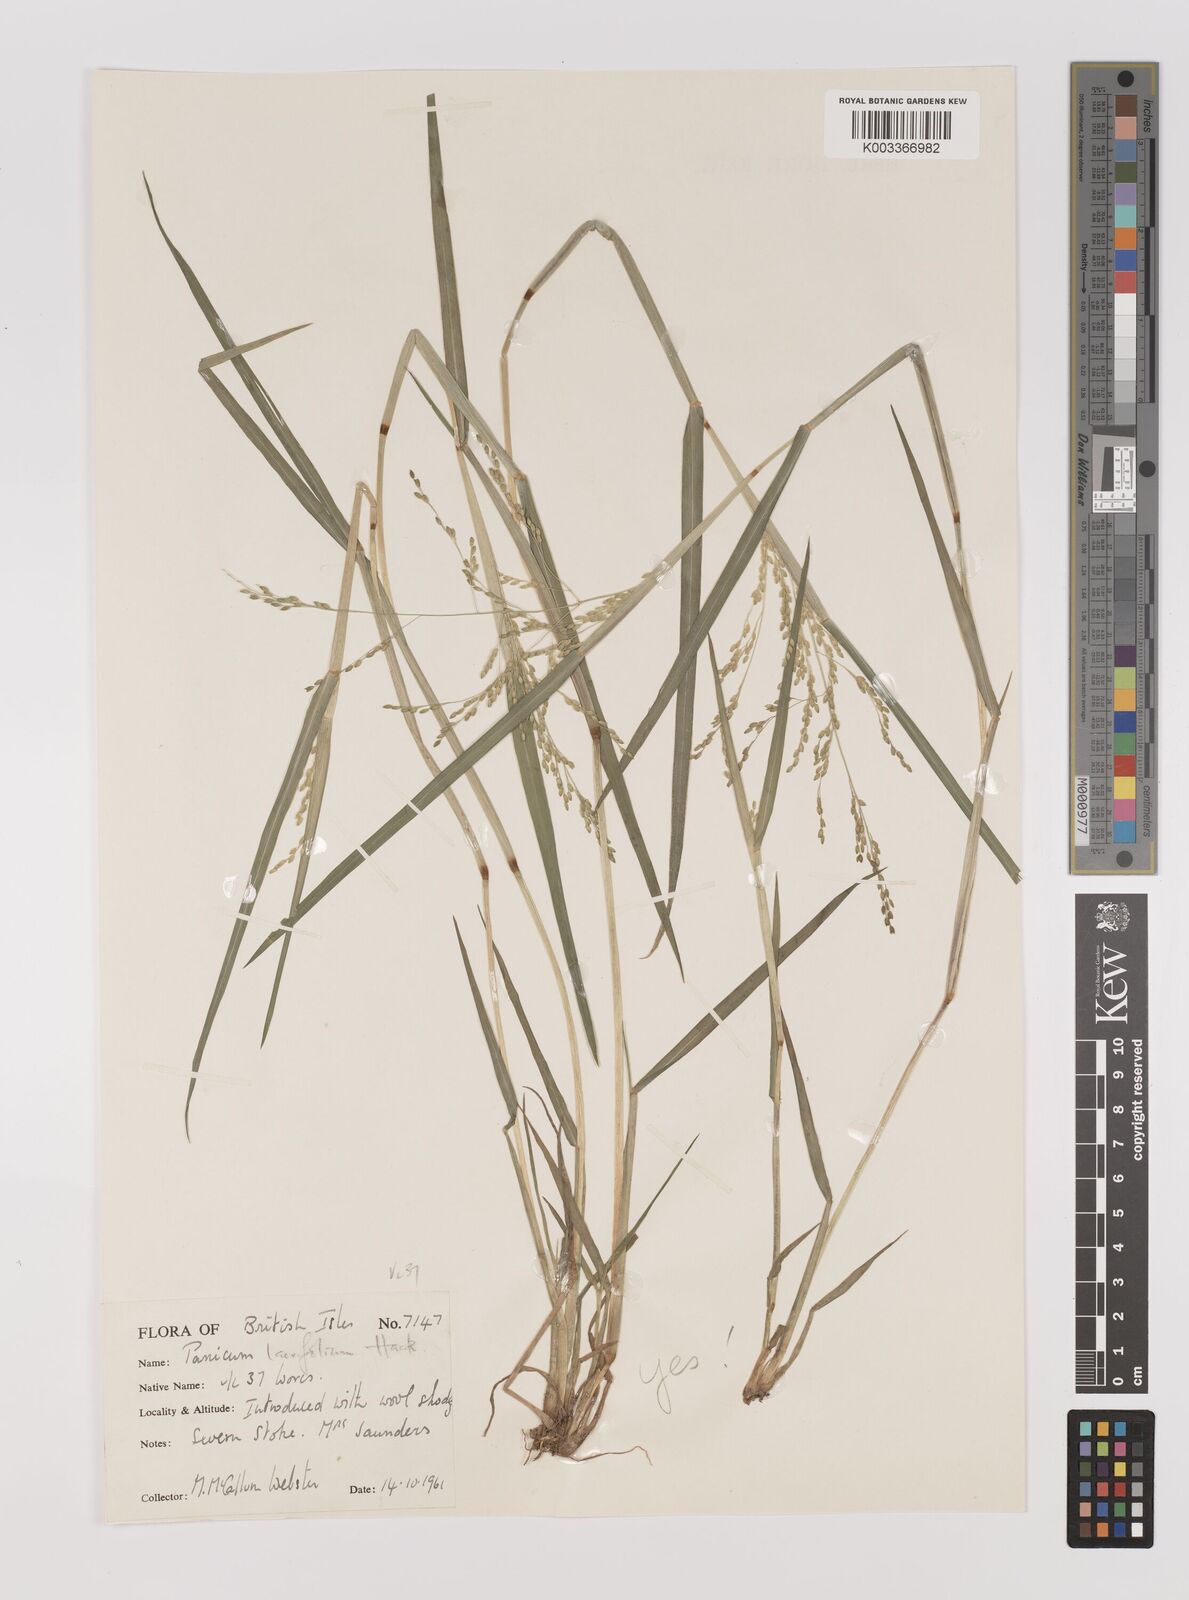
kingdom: Plantae
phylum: Tracheophyta
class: Liliopsida
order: Poales
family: Poaceae
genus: Panicum
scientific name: Panicum schinzii
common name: Sweet grass
